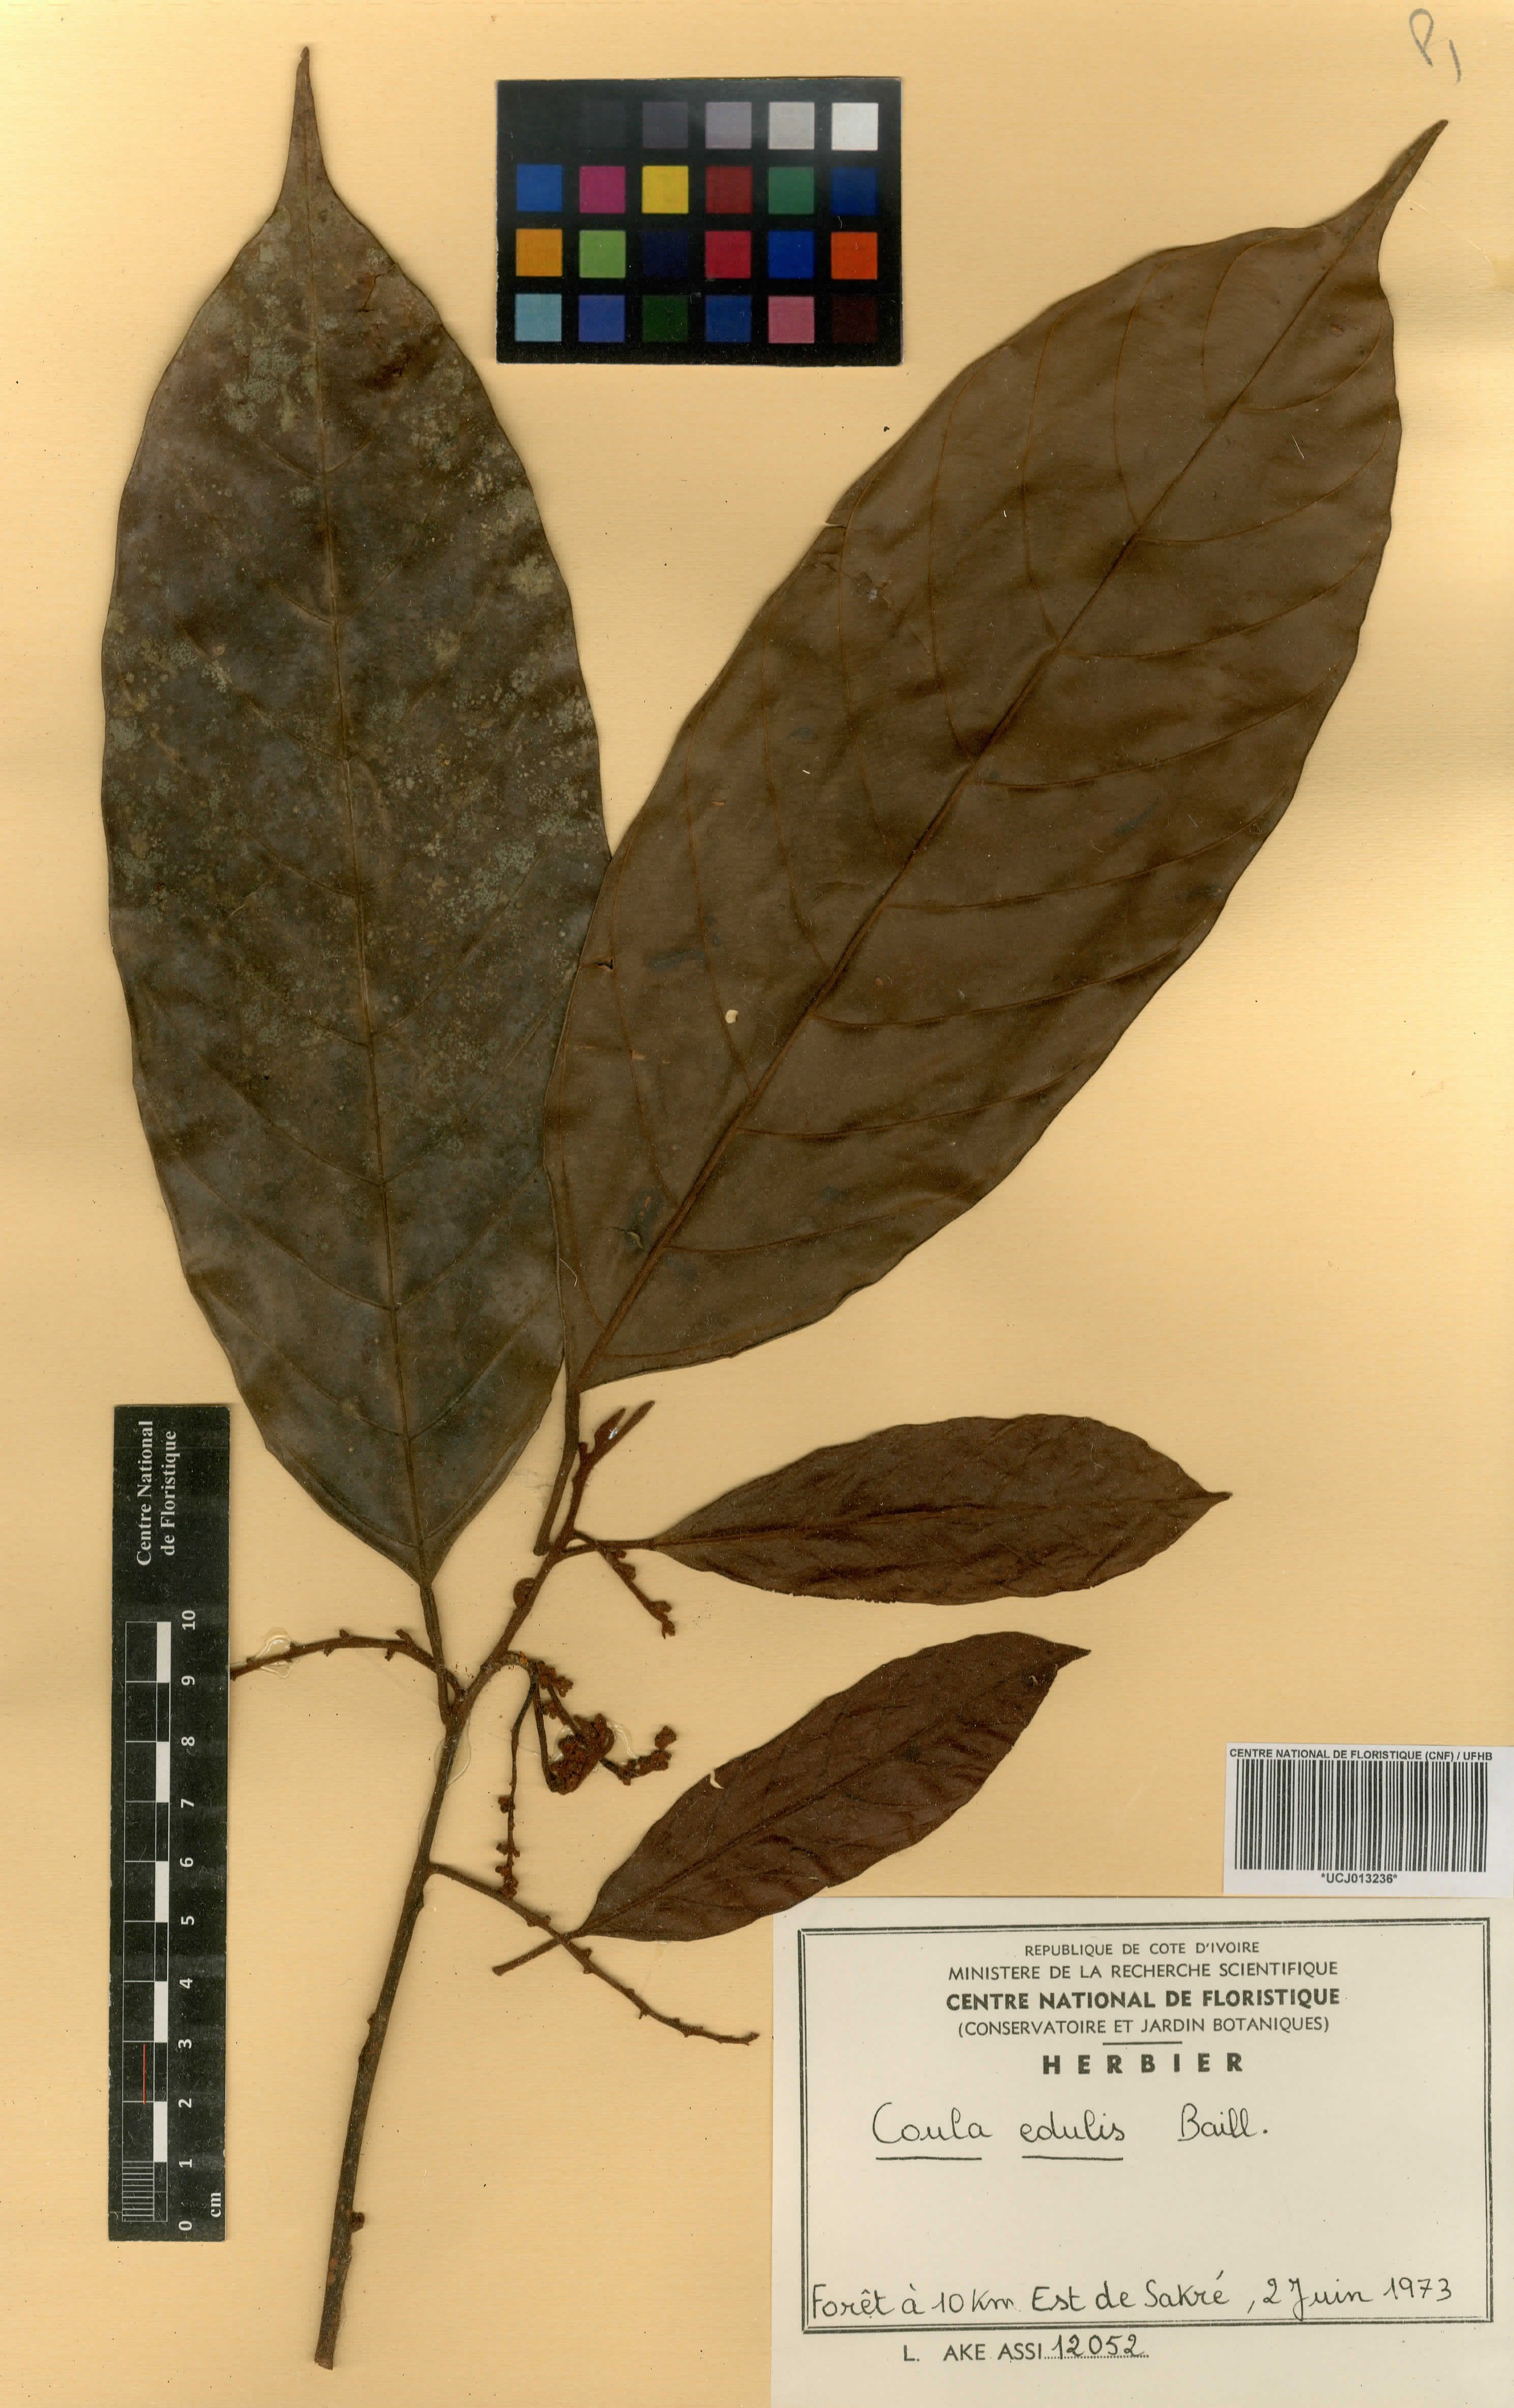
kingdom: Plantae
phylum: Tracheophyta
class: Magnoliopsida
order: Santalales
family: Coulaceae
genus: Coula
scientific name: Coula edulis
